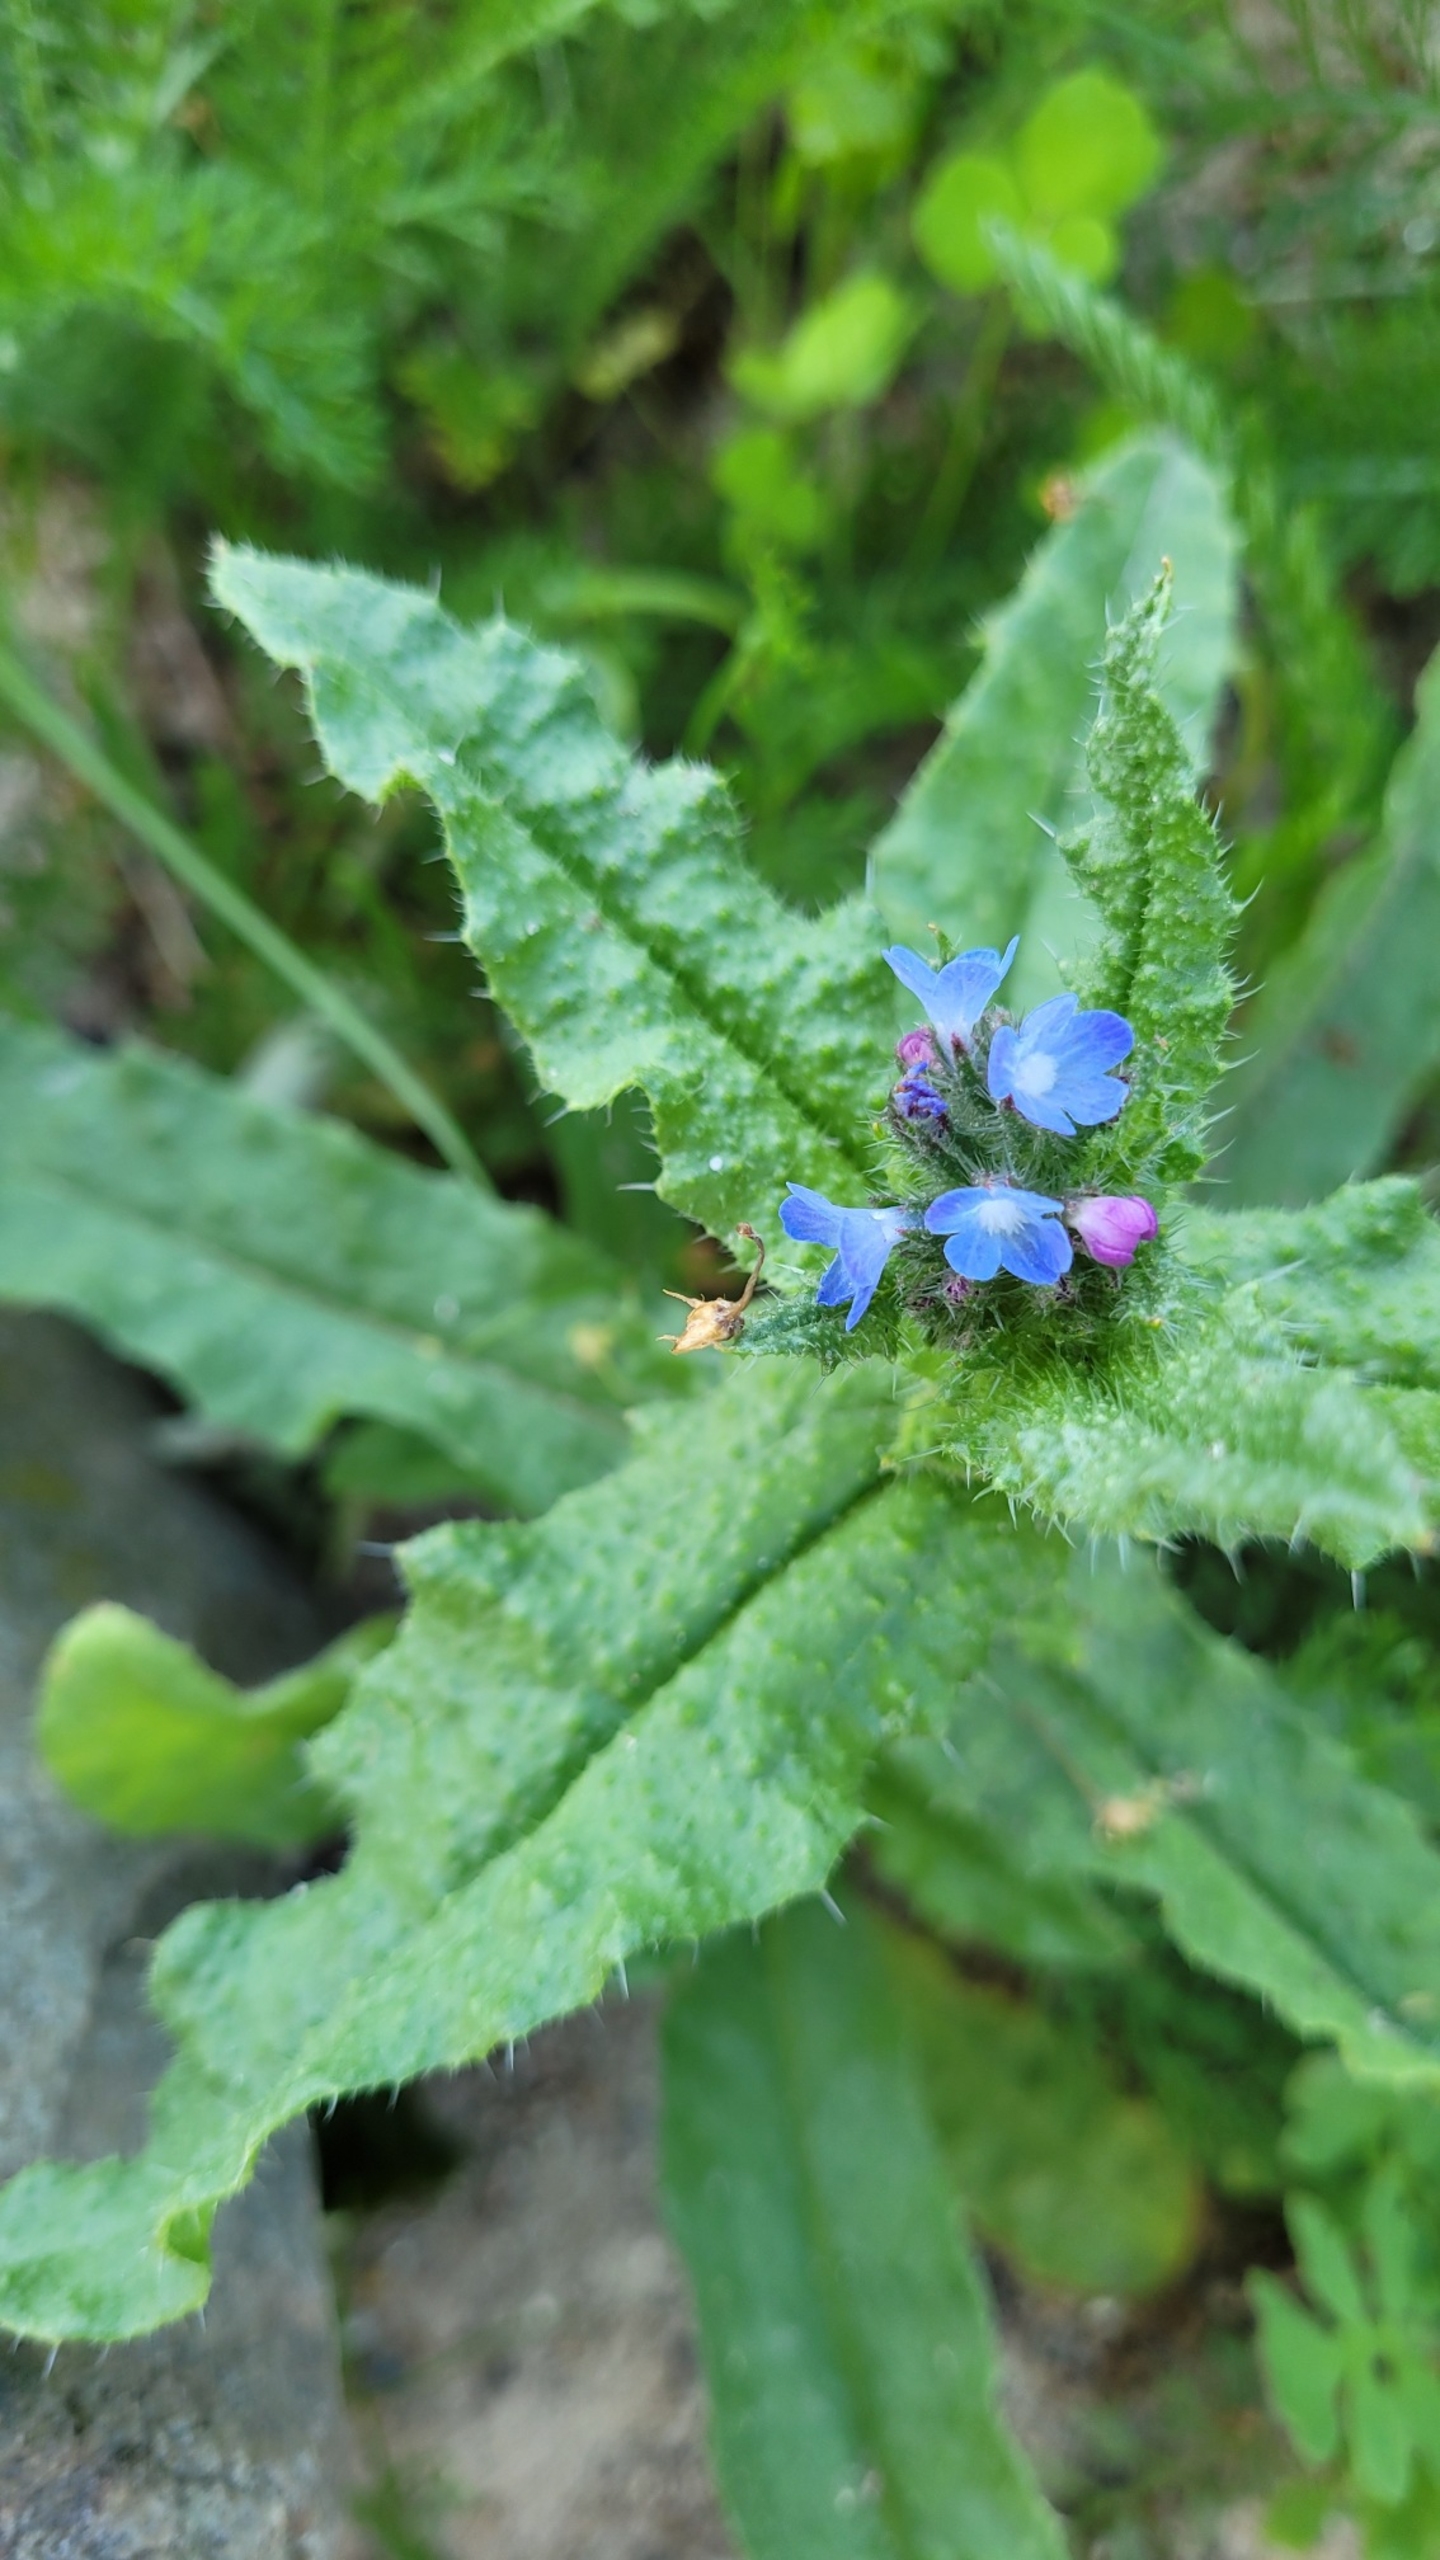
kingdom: Plantae
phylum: Tracheophyta
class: Magnoliopsida
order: Boraginales
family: Boraginaceae
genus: Lycopsis
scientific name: Lycopsis arvensis
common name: Krumhals
